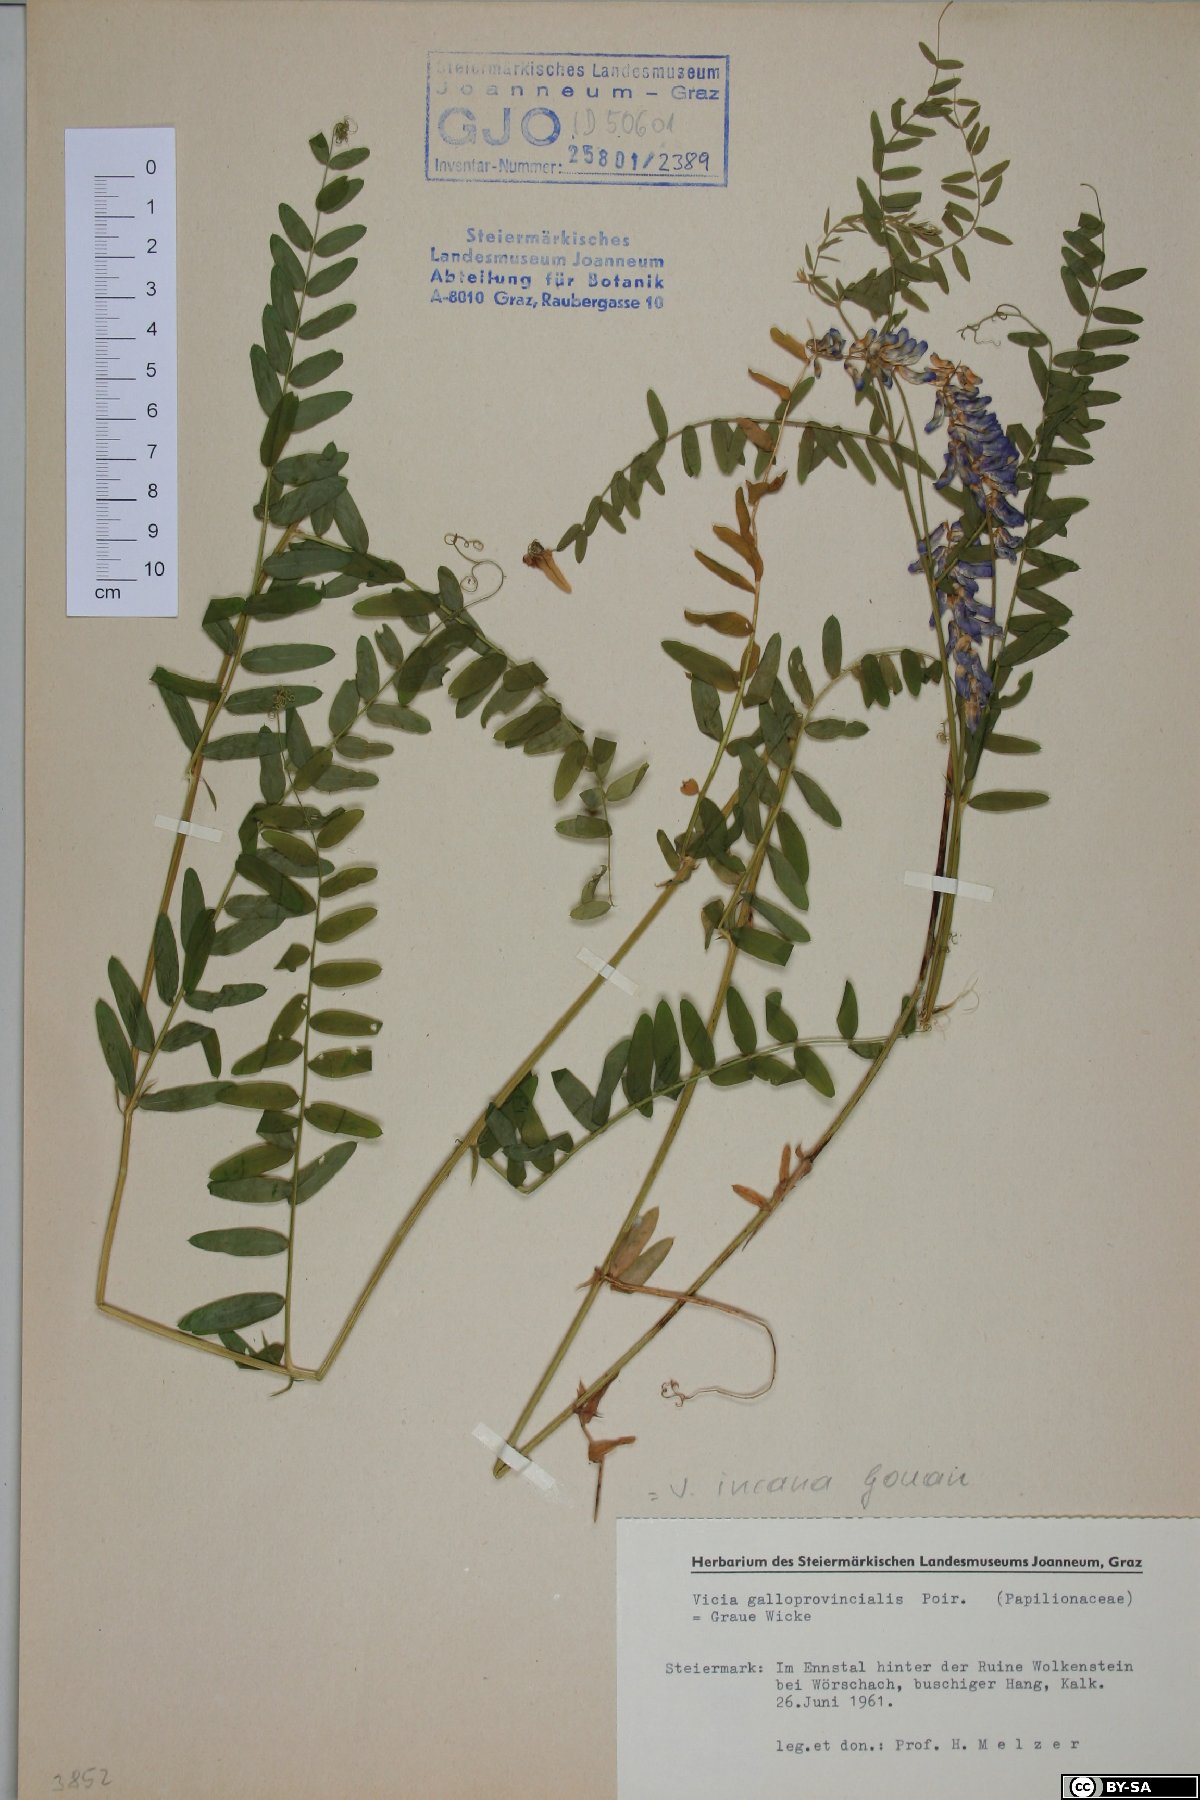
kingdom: Plantae
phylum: Tracheophyta
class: Magnoliopsida
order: Fabales
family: Fabaceae
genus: Vicia
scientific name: Vicia incana
